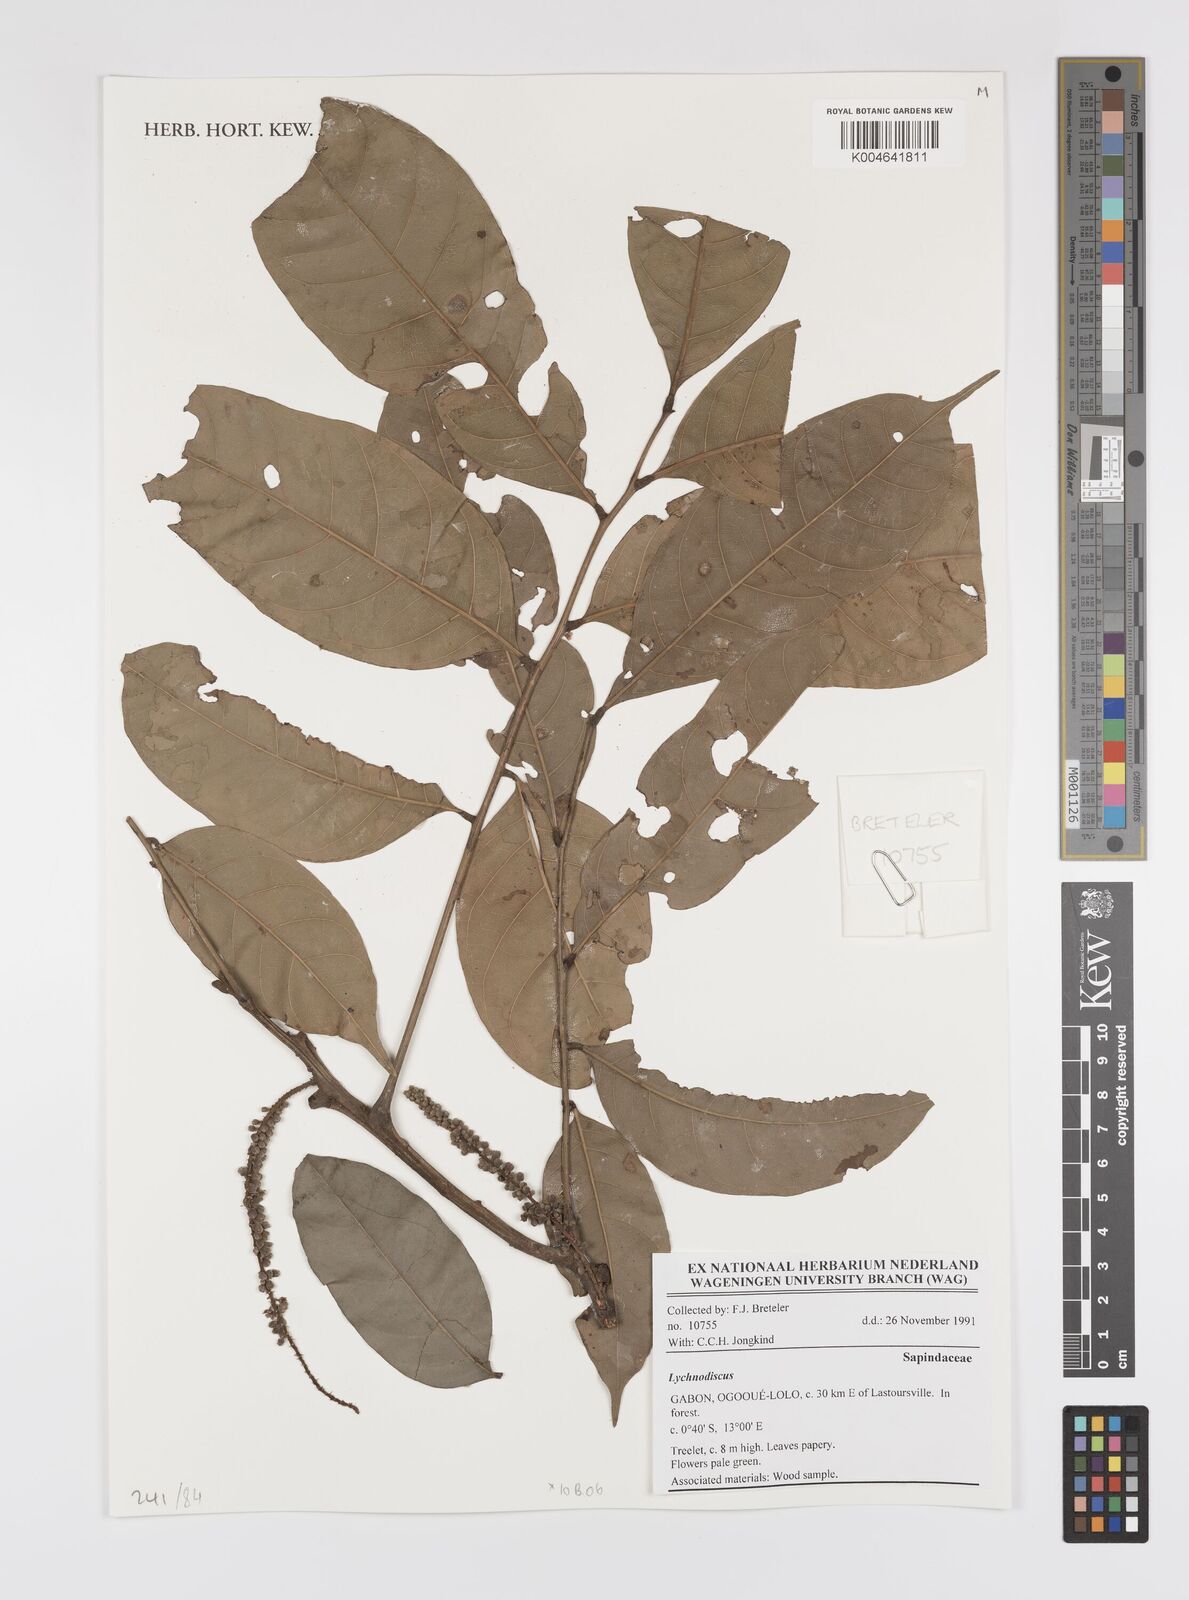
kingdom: Plantae
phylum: Tracheophyta
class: Magnoliopsida
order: Sapindales
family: Sapindaceae
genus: Lychnodiscus
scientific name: Lychnodiscus
